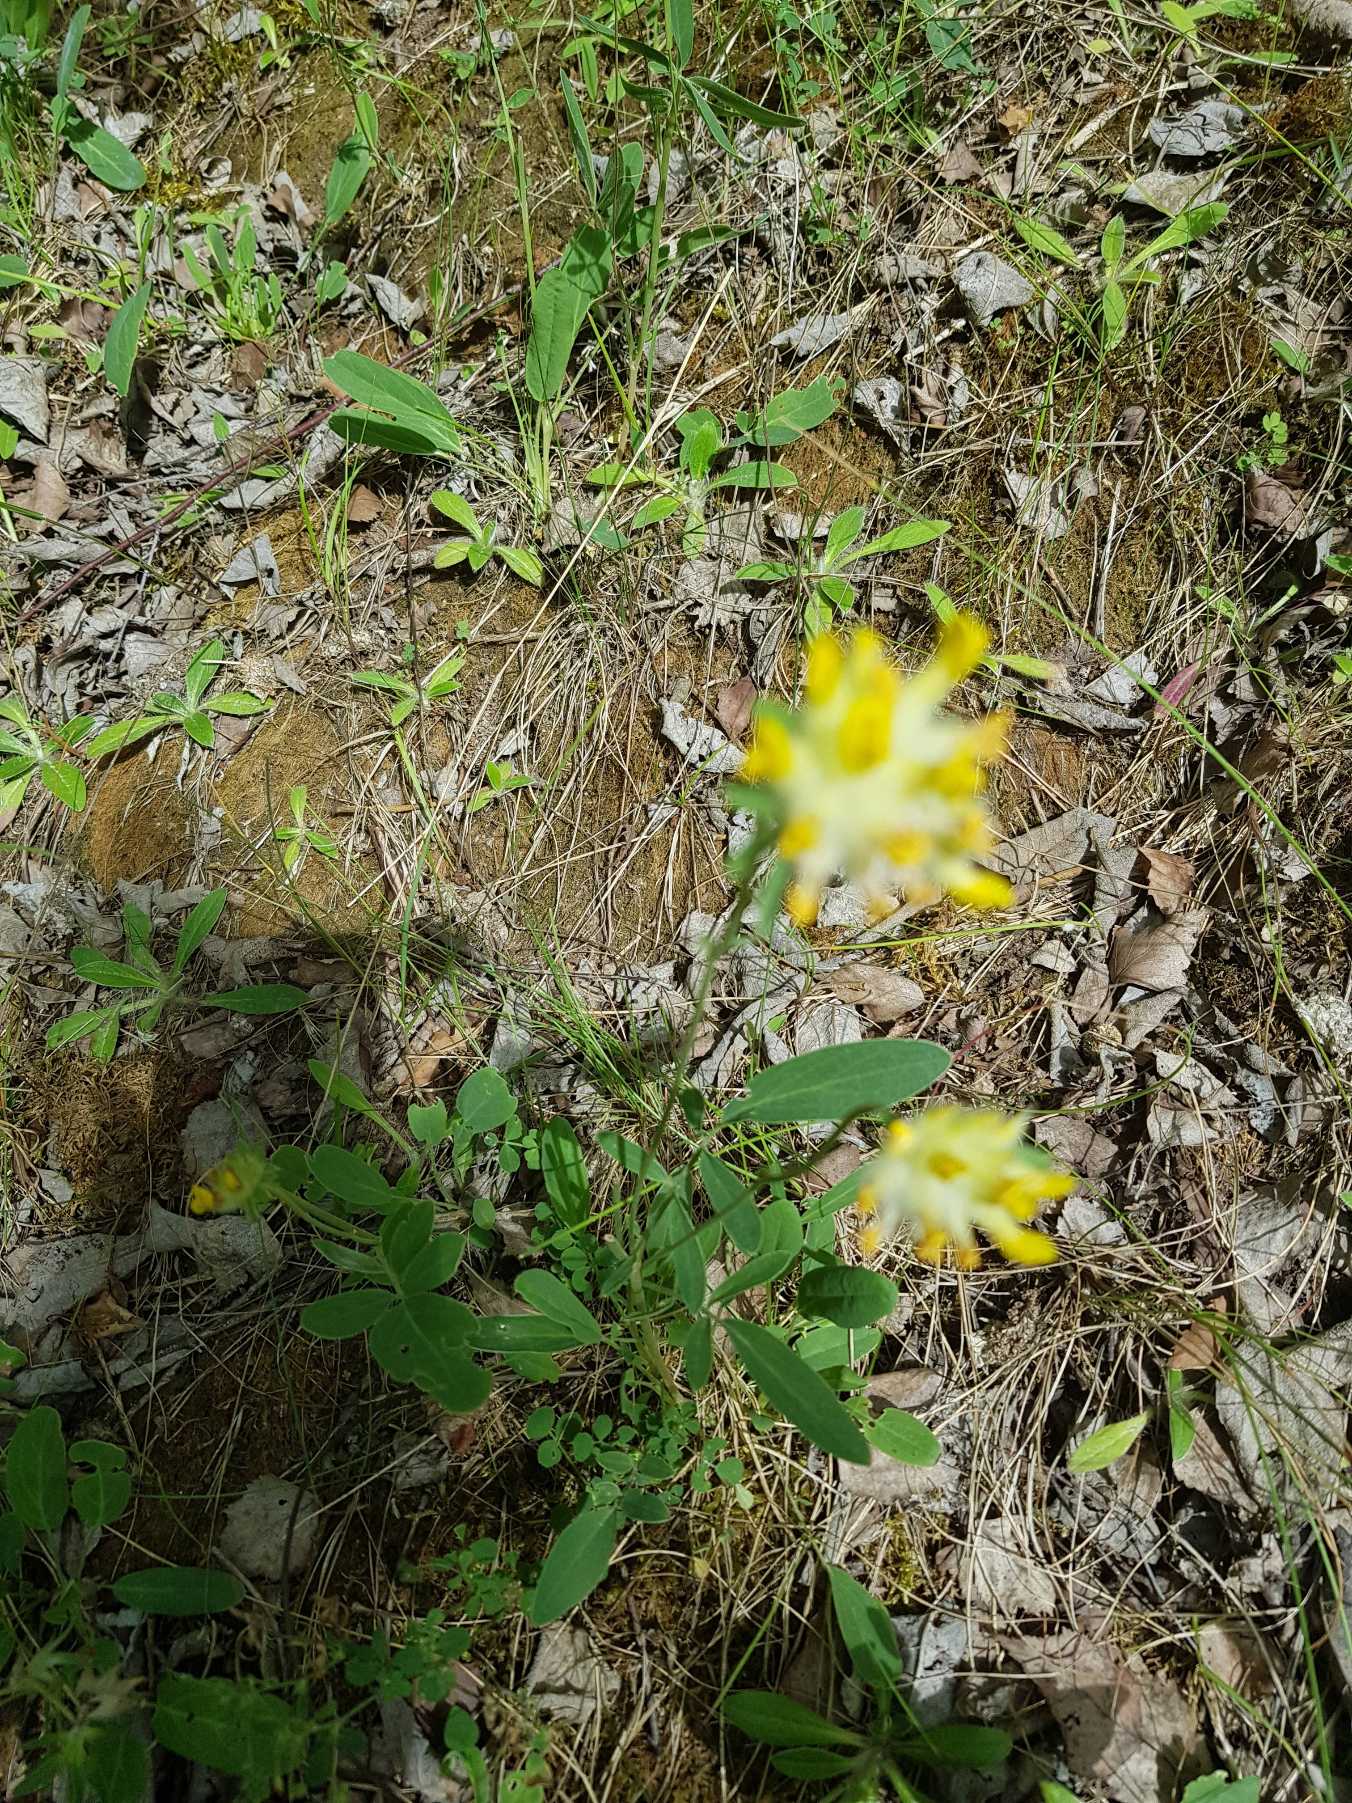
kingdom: Plantae
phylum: Tracheophyta
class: Magnoliopsida
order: Fabales
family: Fabaceae
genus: Anthyllis
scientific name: Anthyllis vulneraria
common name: Rundbælg
